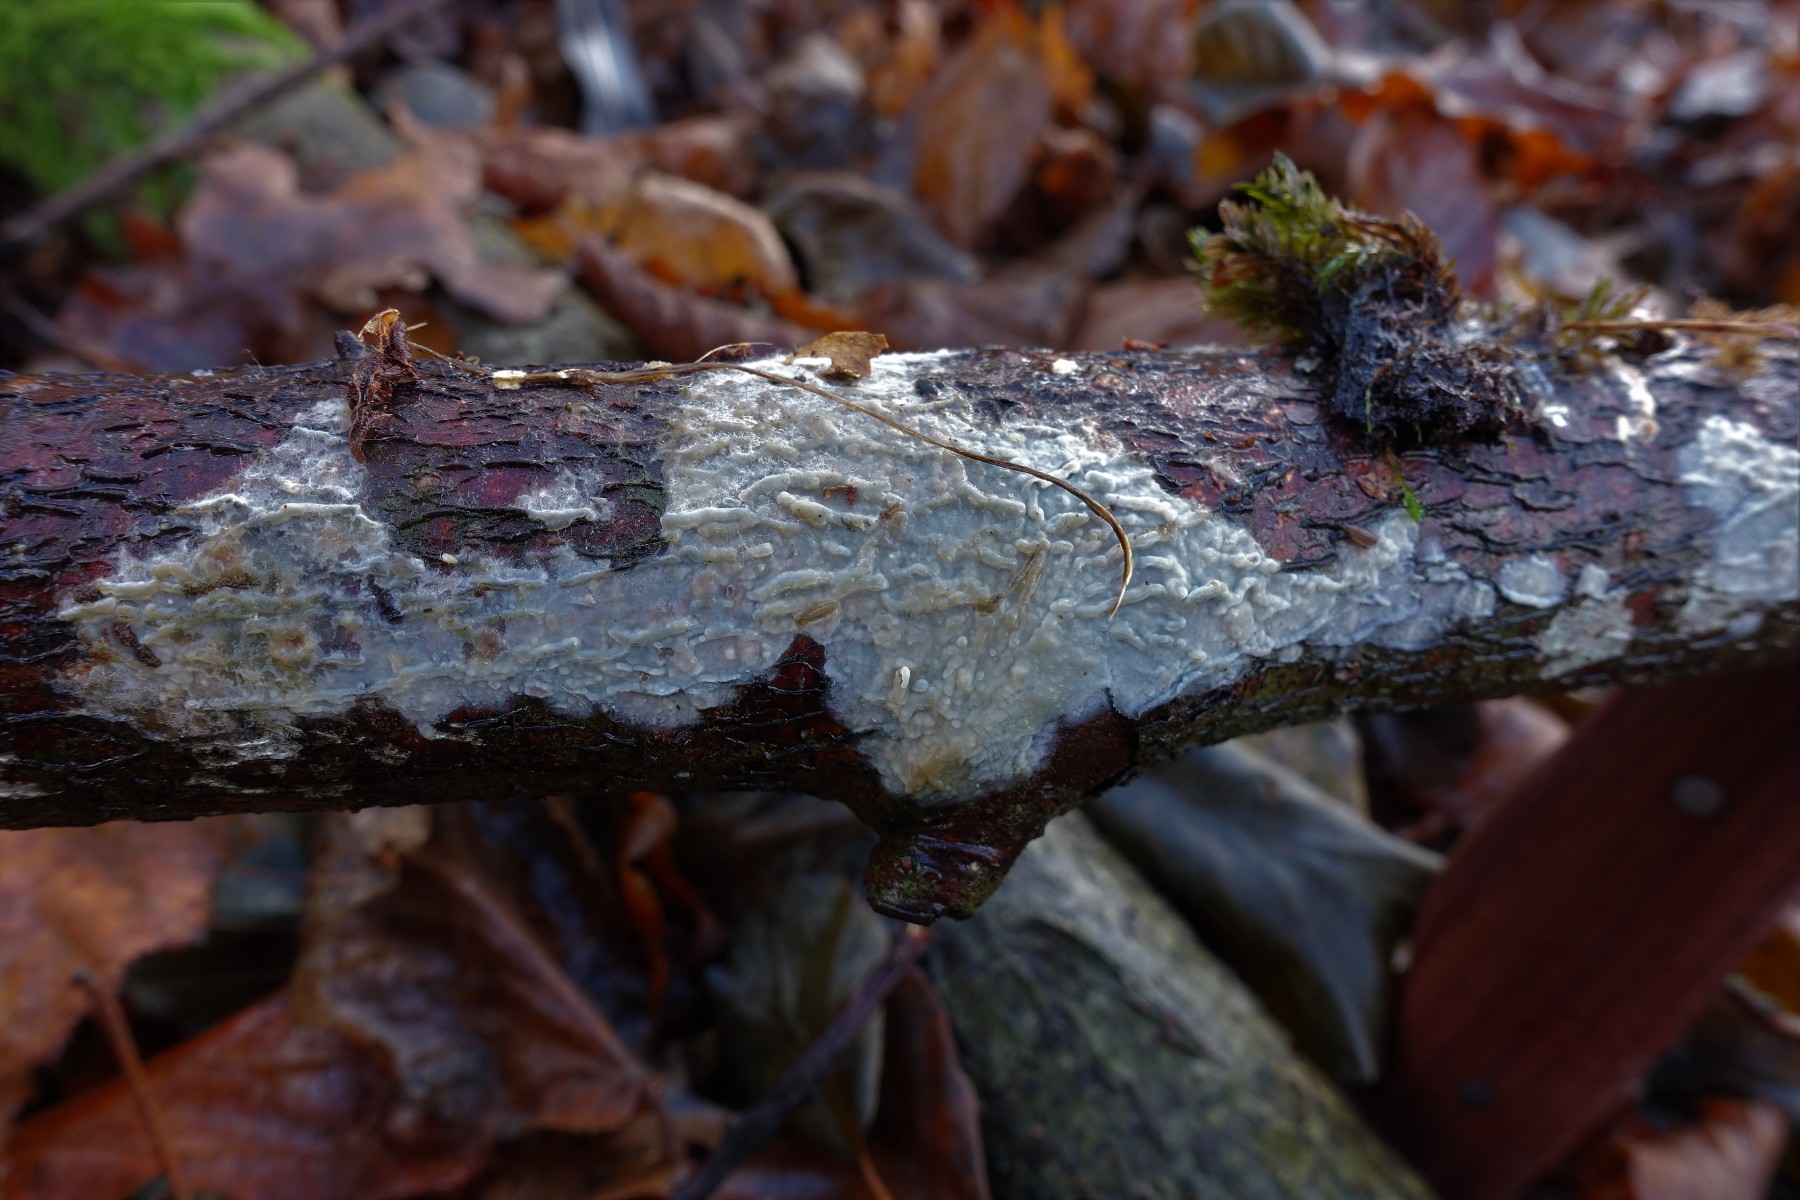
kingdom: Fungi
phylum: Basidiomycota
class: Agaricomycetes
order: Agaricales
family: Radulomycetaceae
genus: Radulomyces
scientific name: Radulomyces confluens
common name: glat naftalinskind
